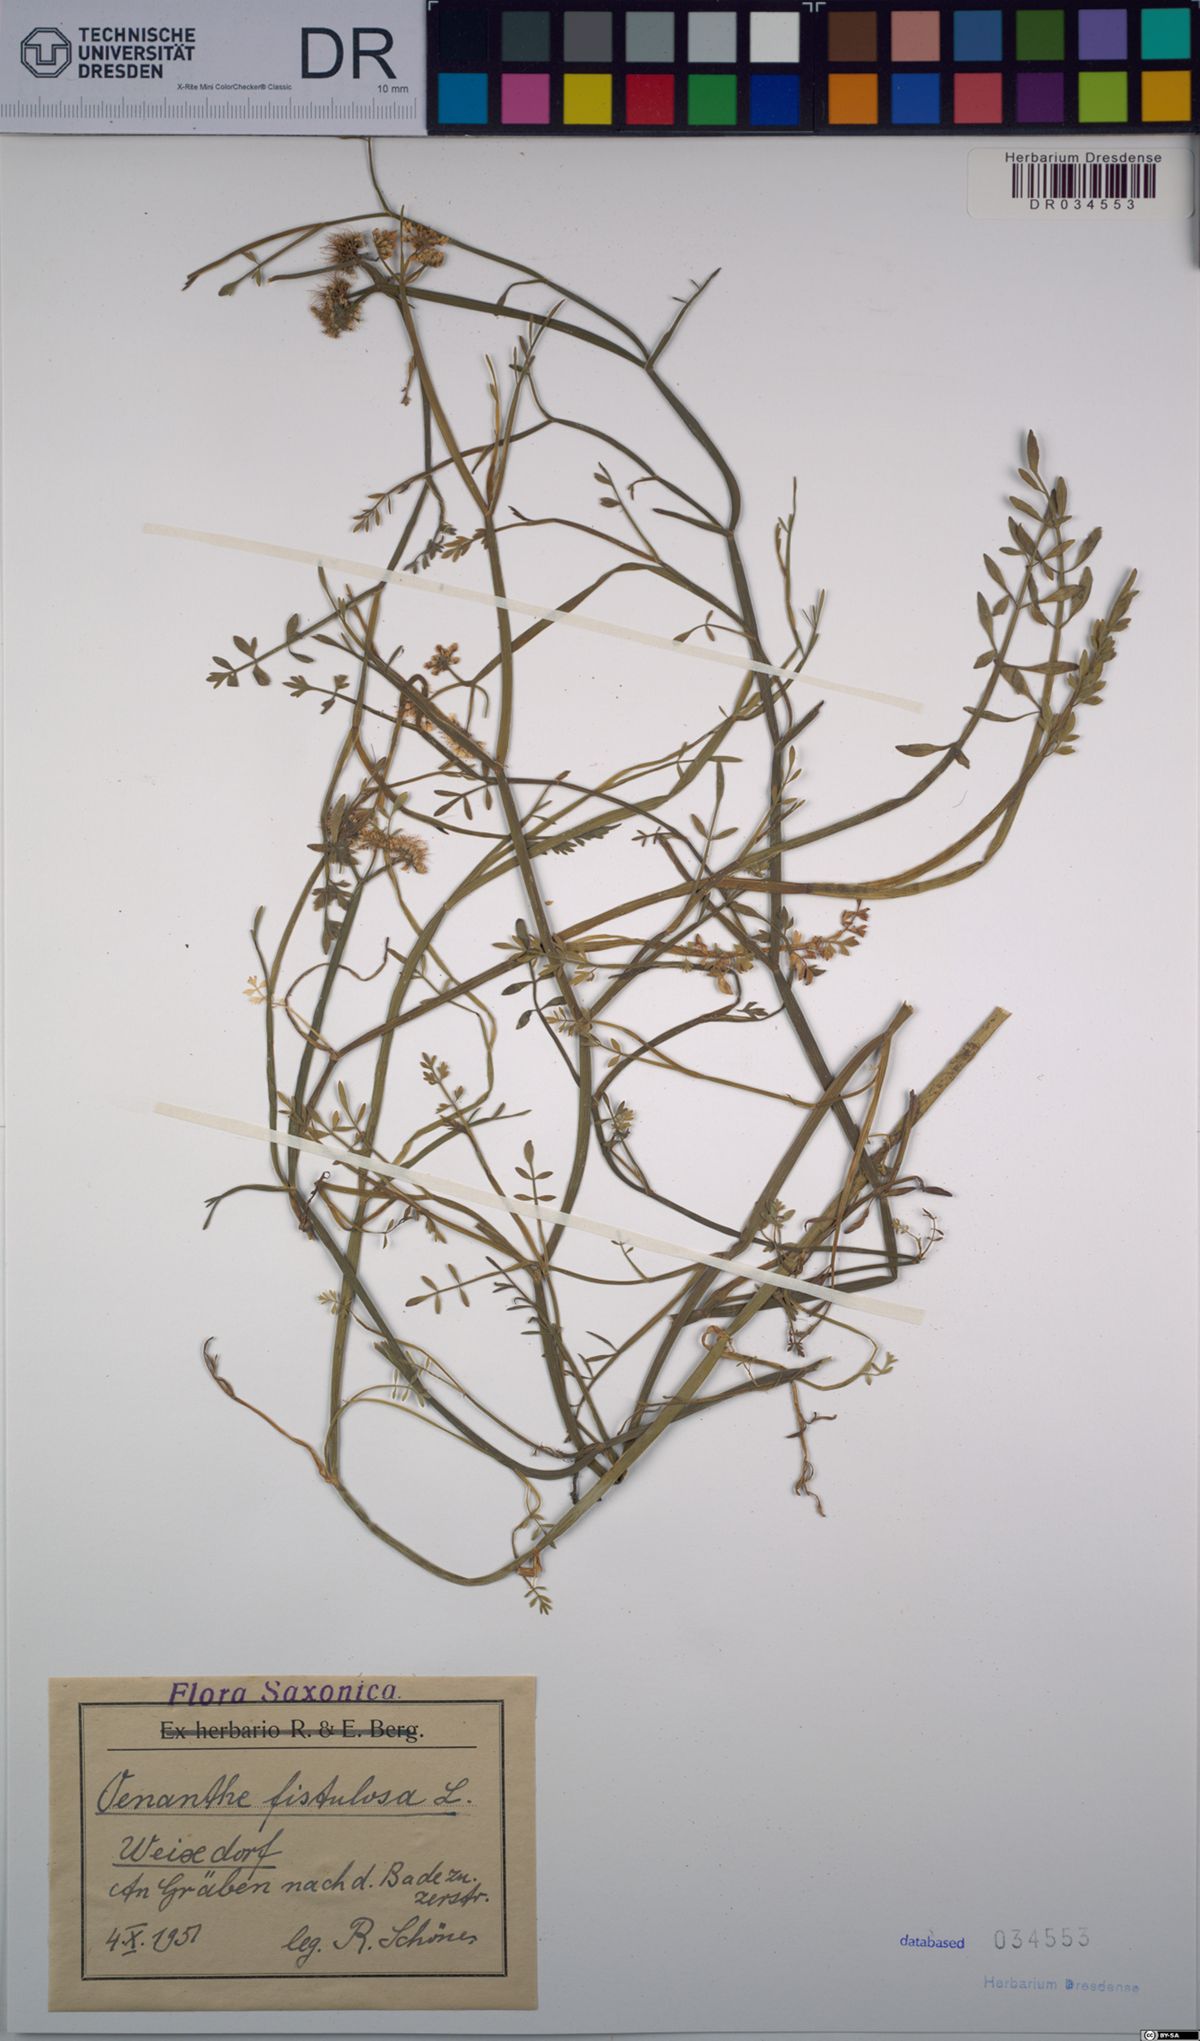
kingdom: Plantae
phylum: Tracheophyta
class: Magnoliopsida
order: Apiales
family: Apiaceae
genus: Oenanthe
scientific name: Oenanthe fistulosa
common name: Tubular water-dropwort
